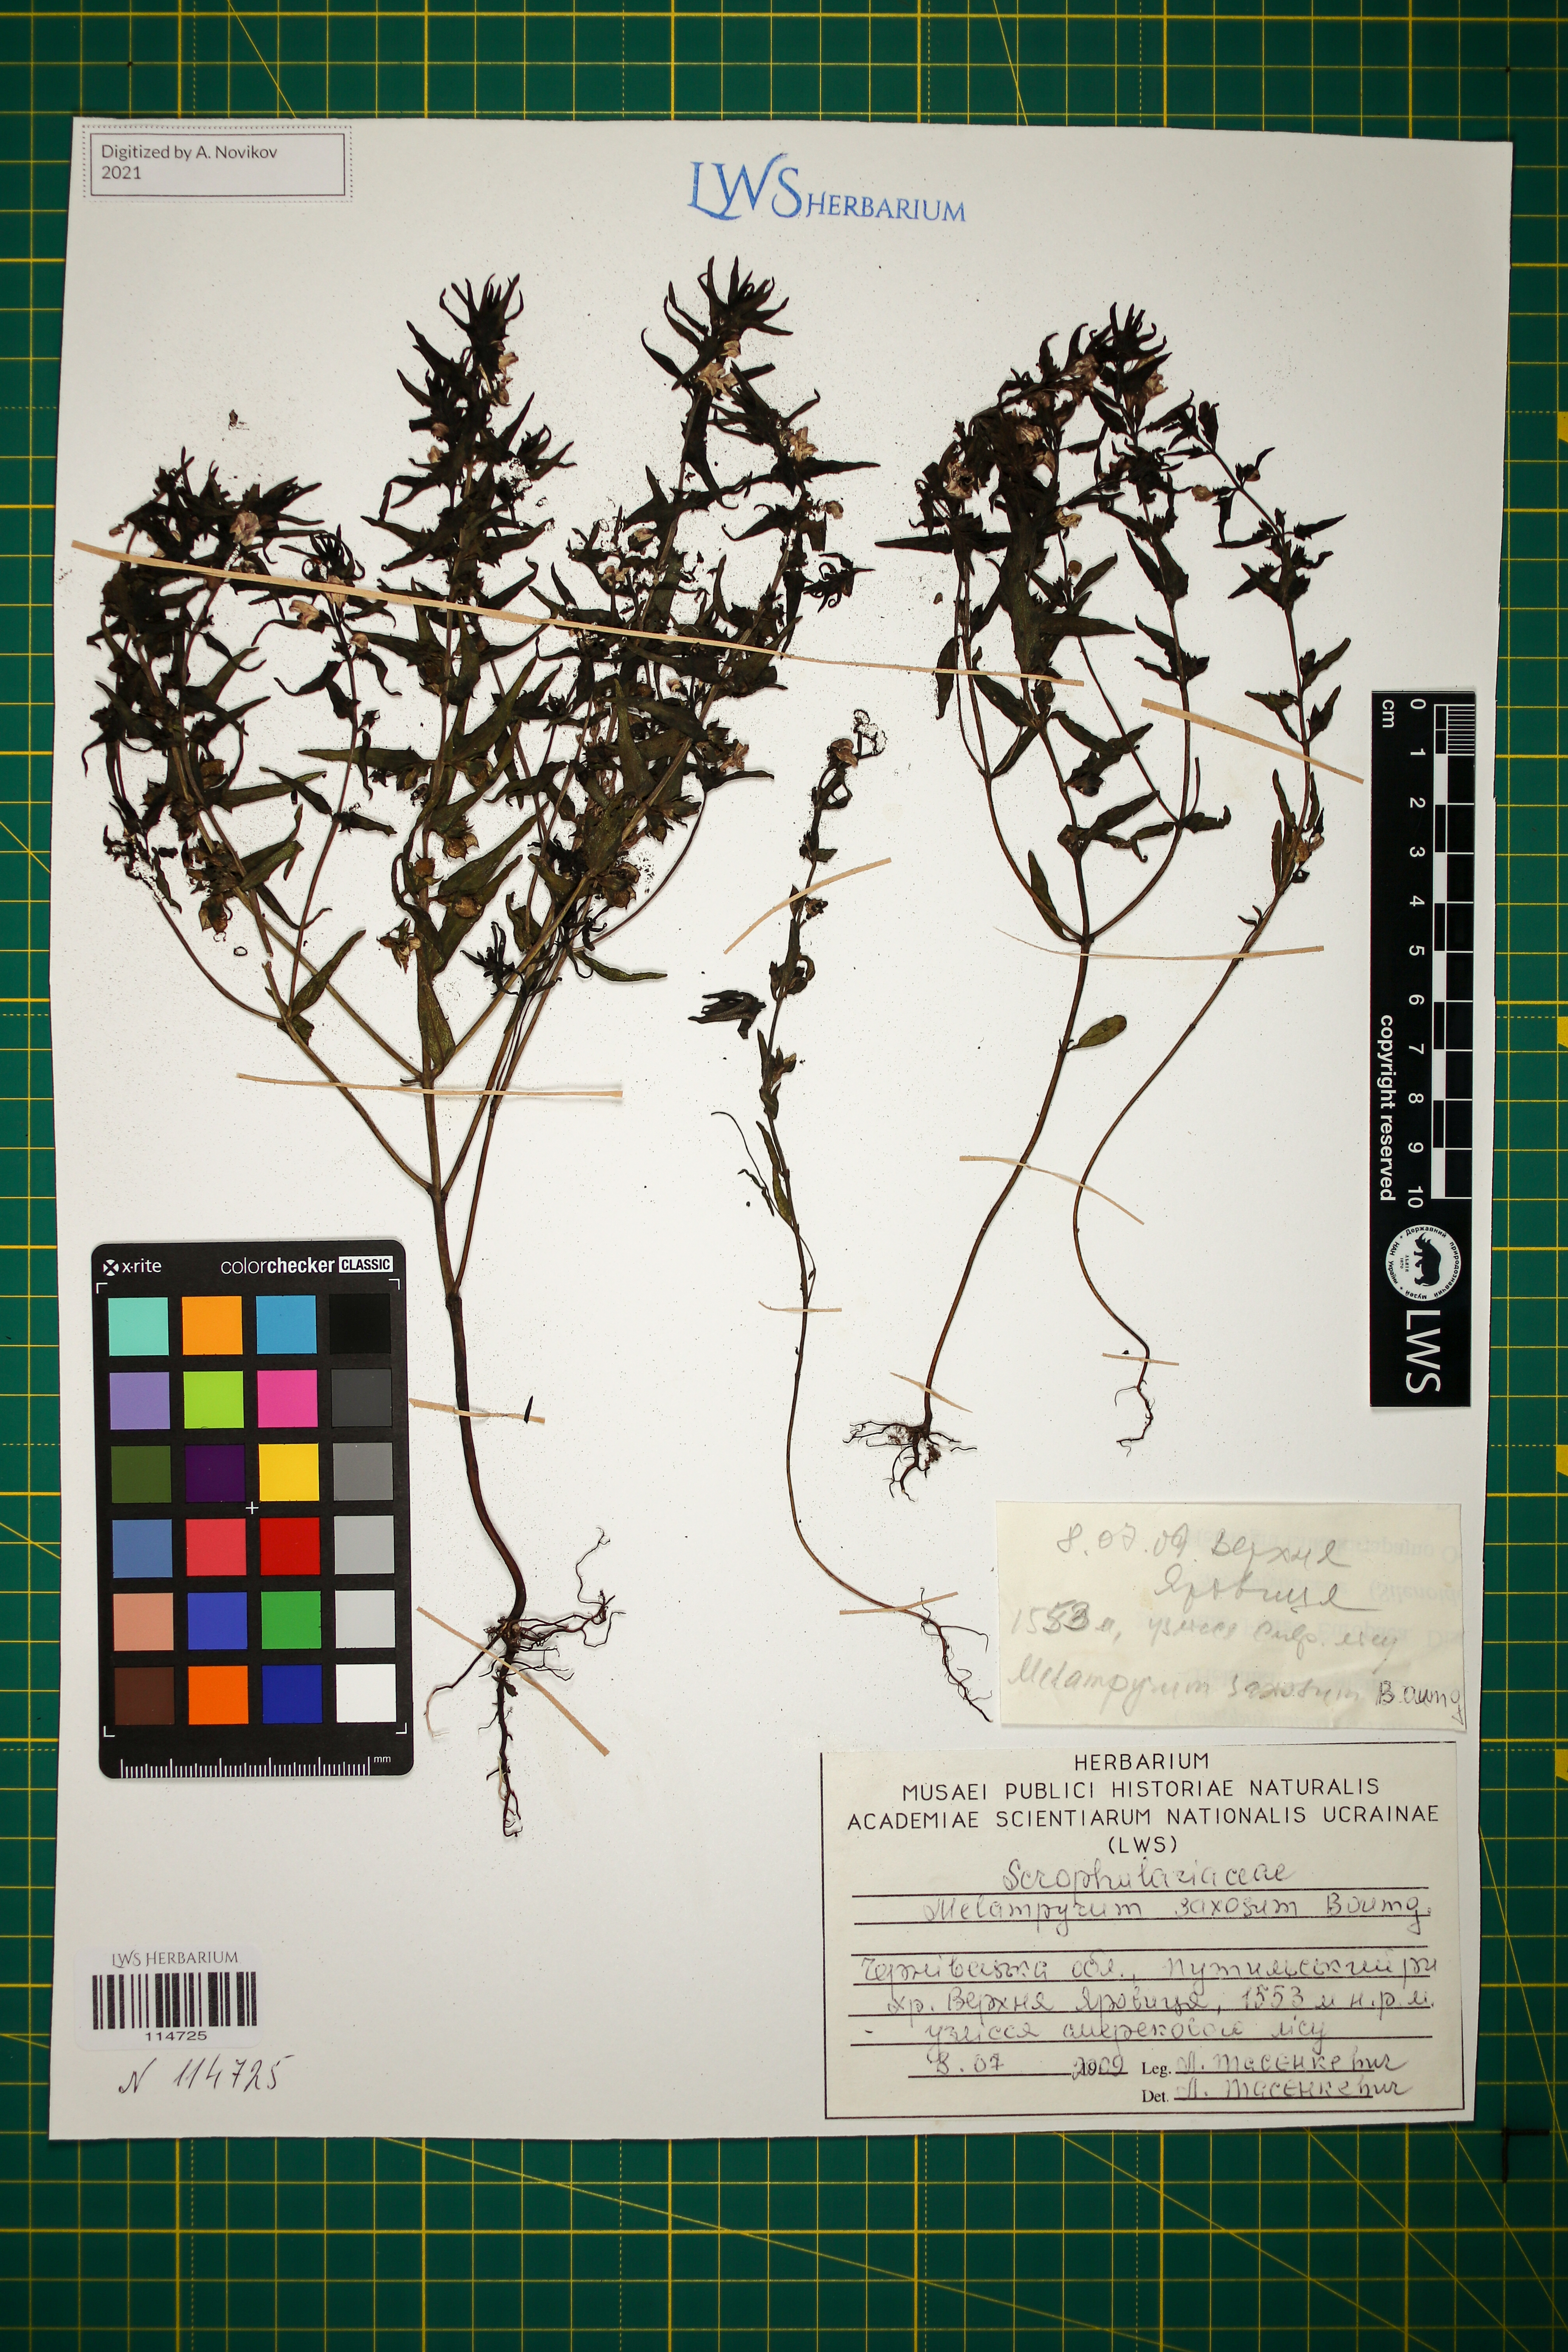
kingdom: Plantae
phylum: Tracheophyta
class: Magnoliopsida
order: Lamiales
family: Orobanchaceae
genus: Melampyrum
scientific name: Melampyrum saxosum
